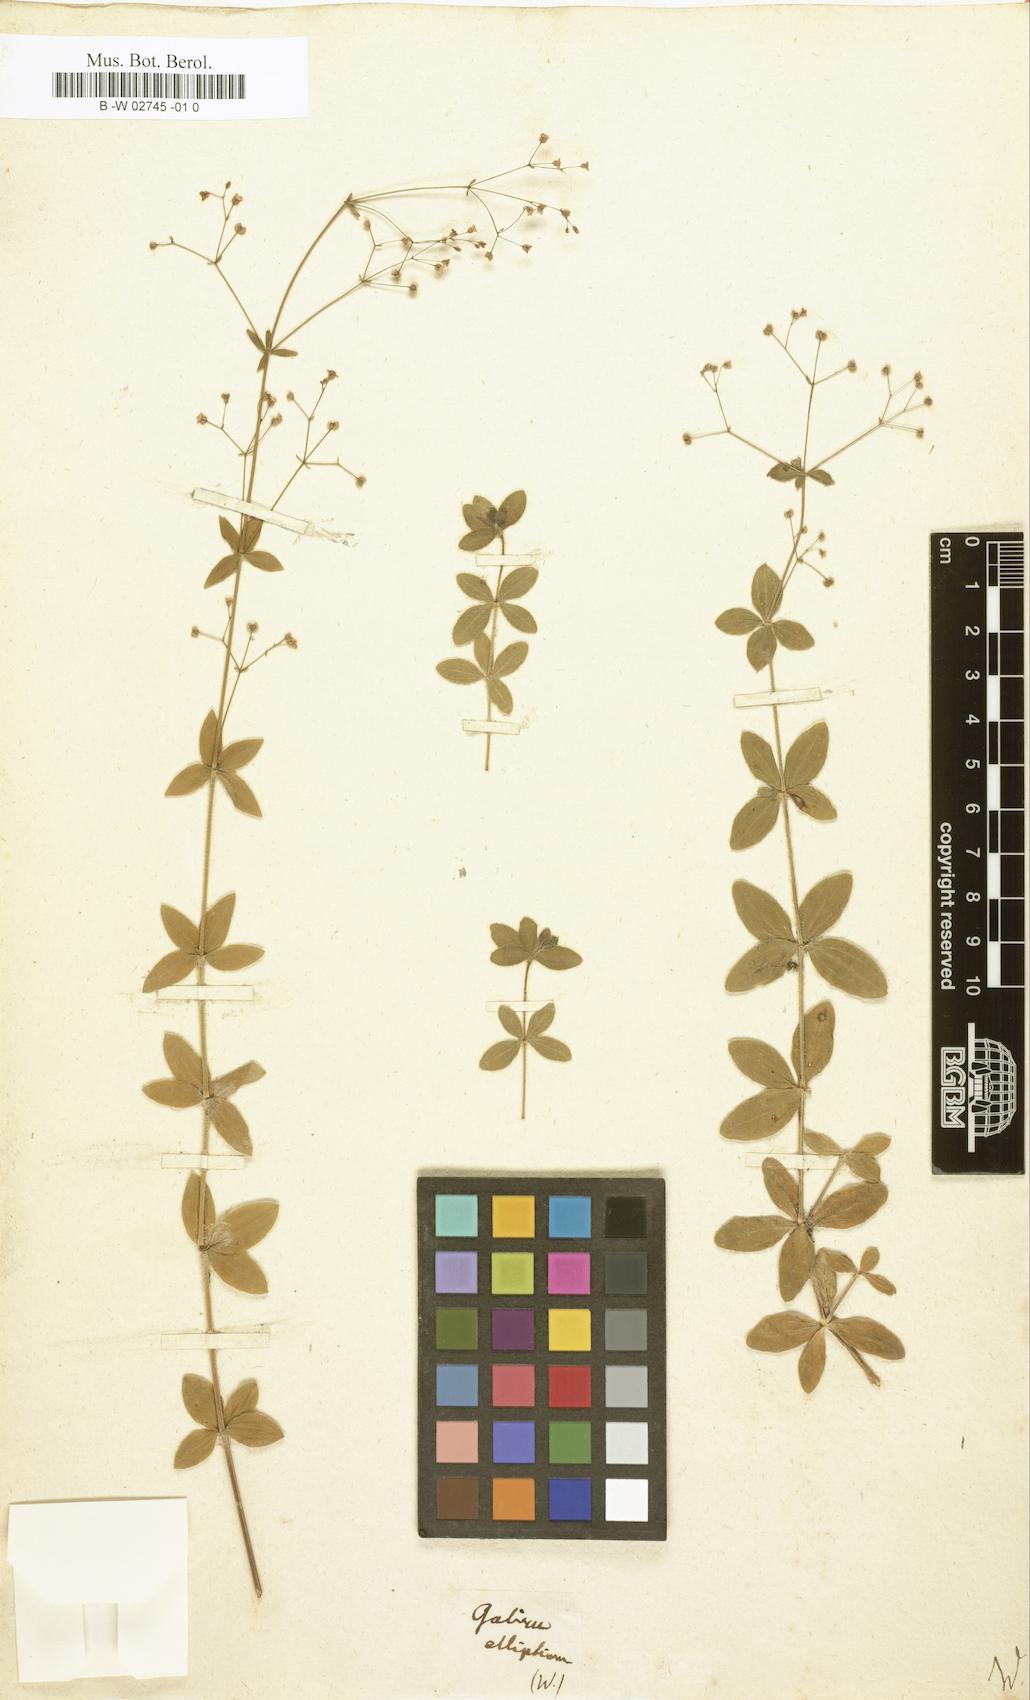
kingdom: Plantae
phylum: Tracheophyta
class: Magnoliopsida
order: Gentianales
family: Rubiaceae
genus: Galium
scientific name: Galium ellipticum
